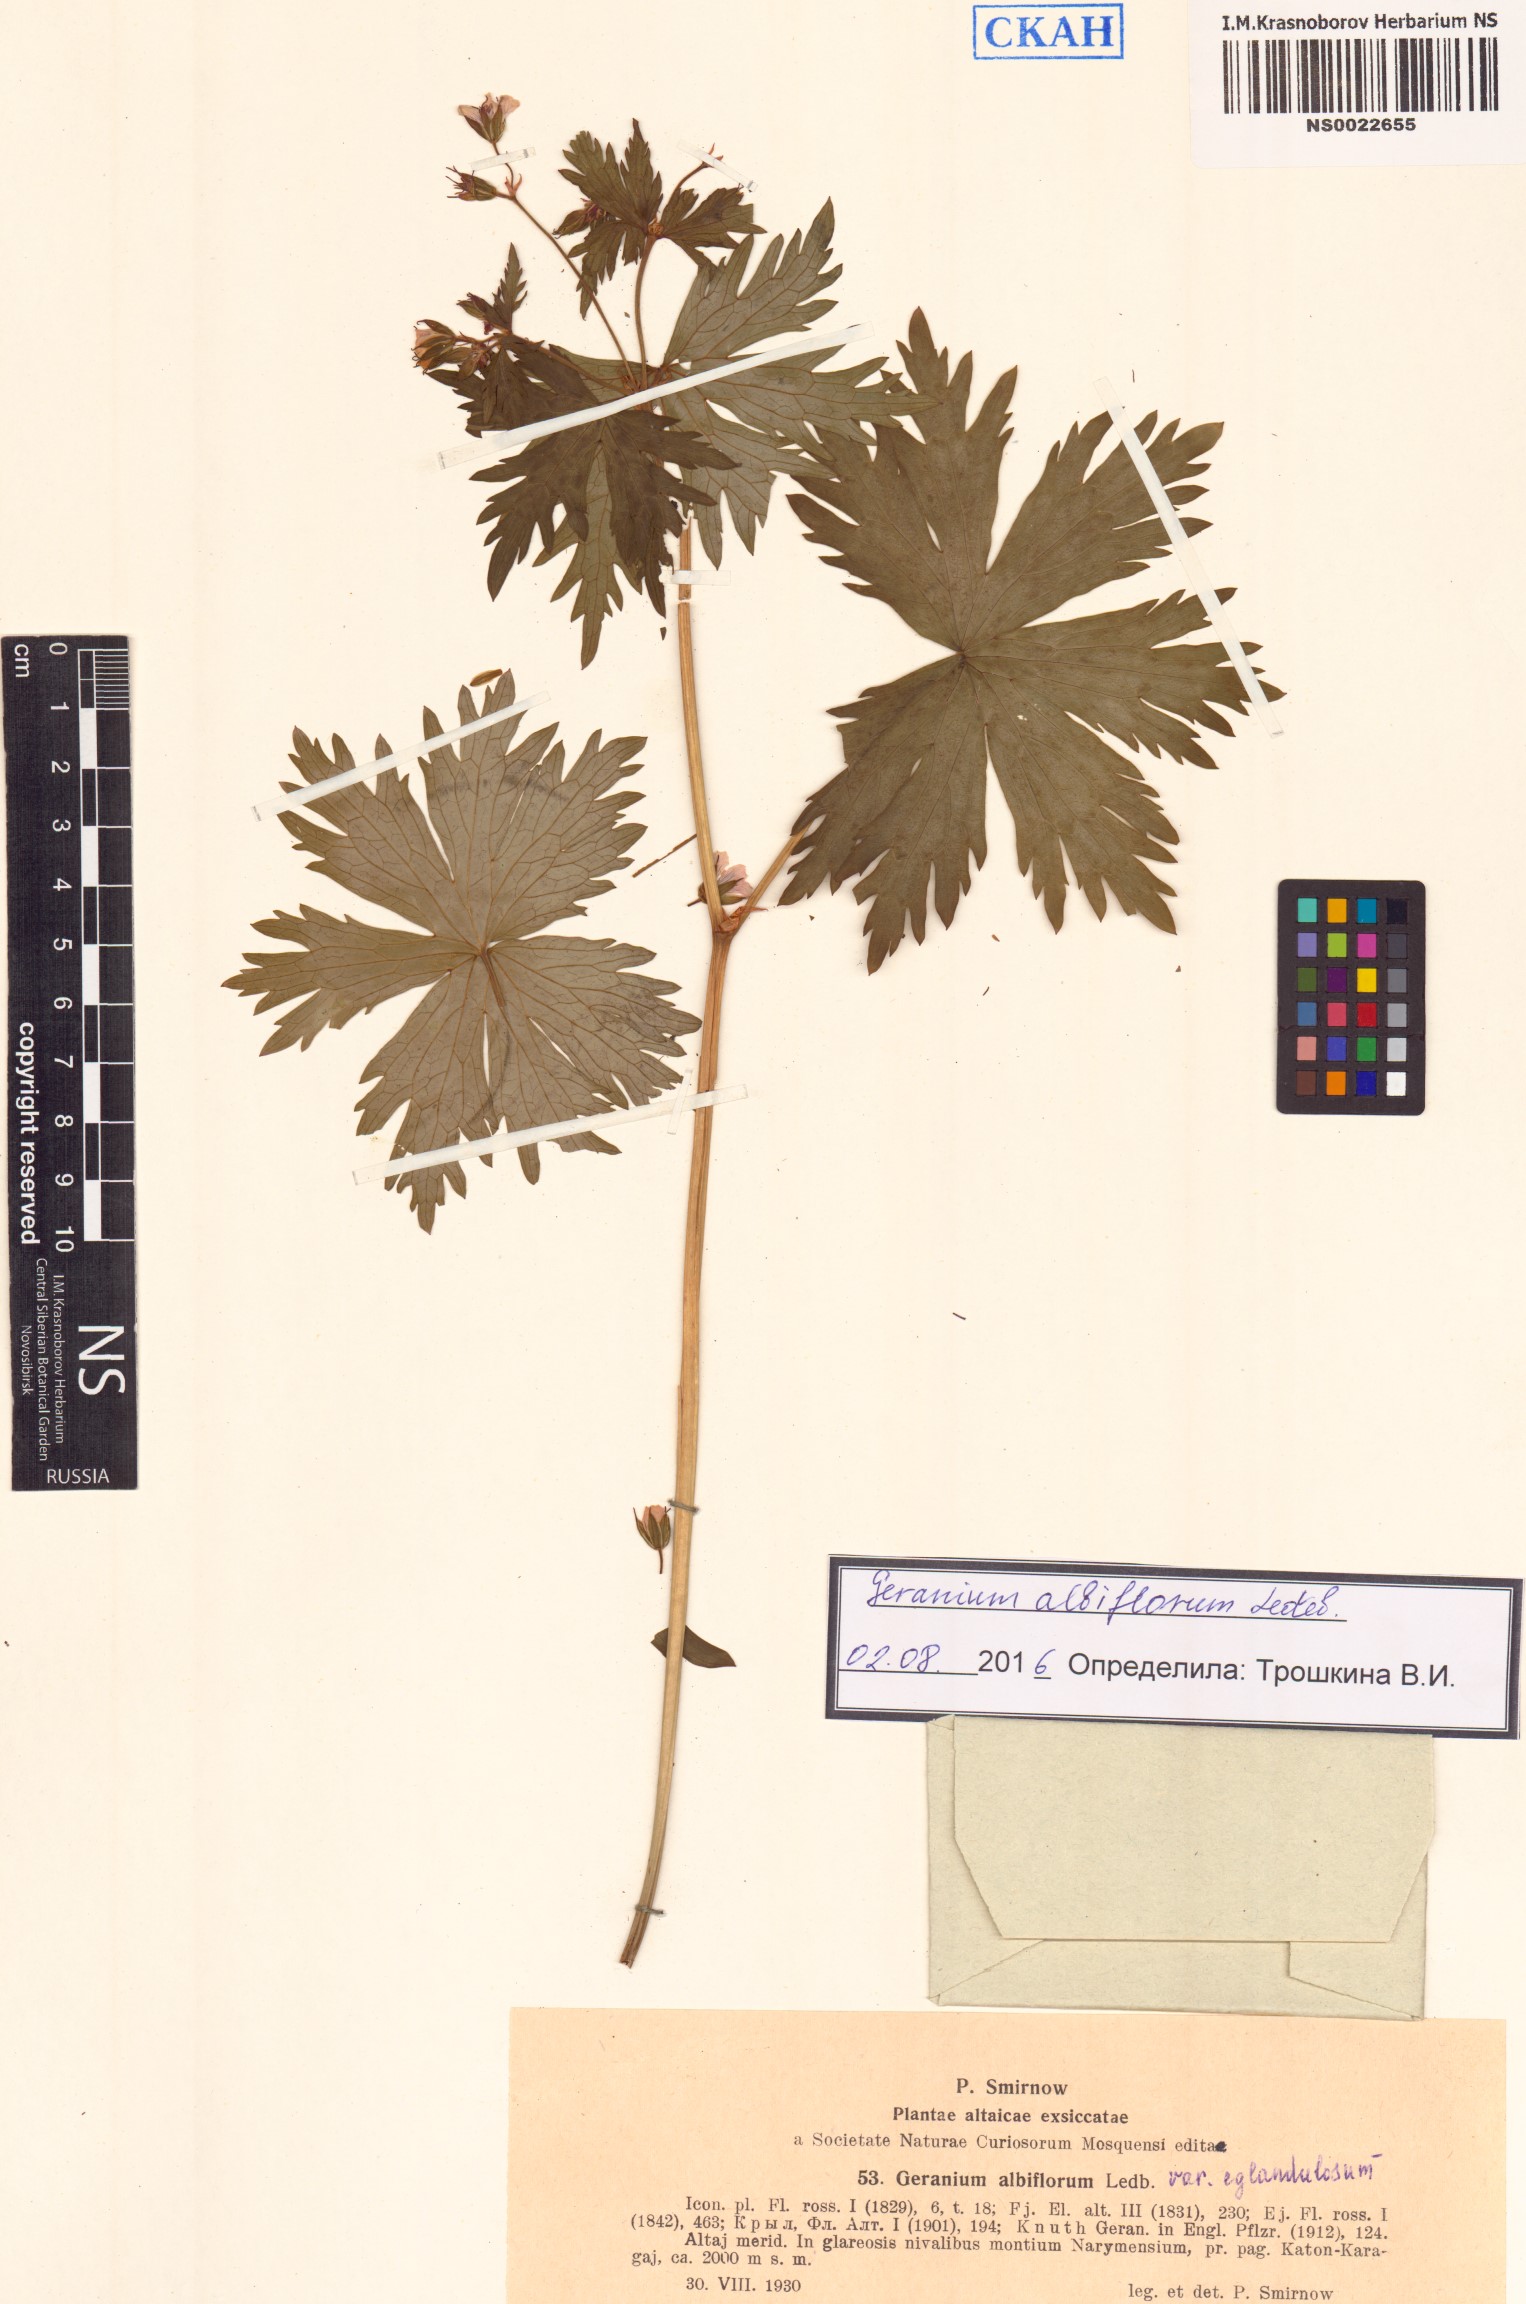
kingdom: Plantae
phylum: Tracheophyta
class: Magnoliopsida
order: Geraniales
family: Geraniaceae
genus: Geranium
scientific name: Geranium albiflorum
